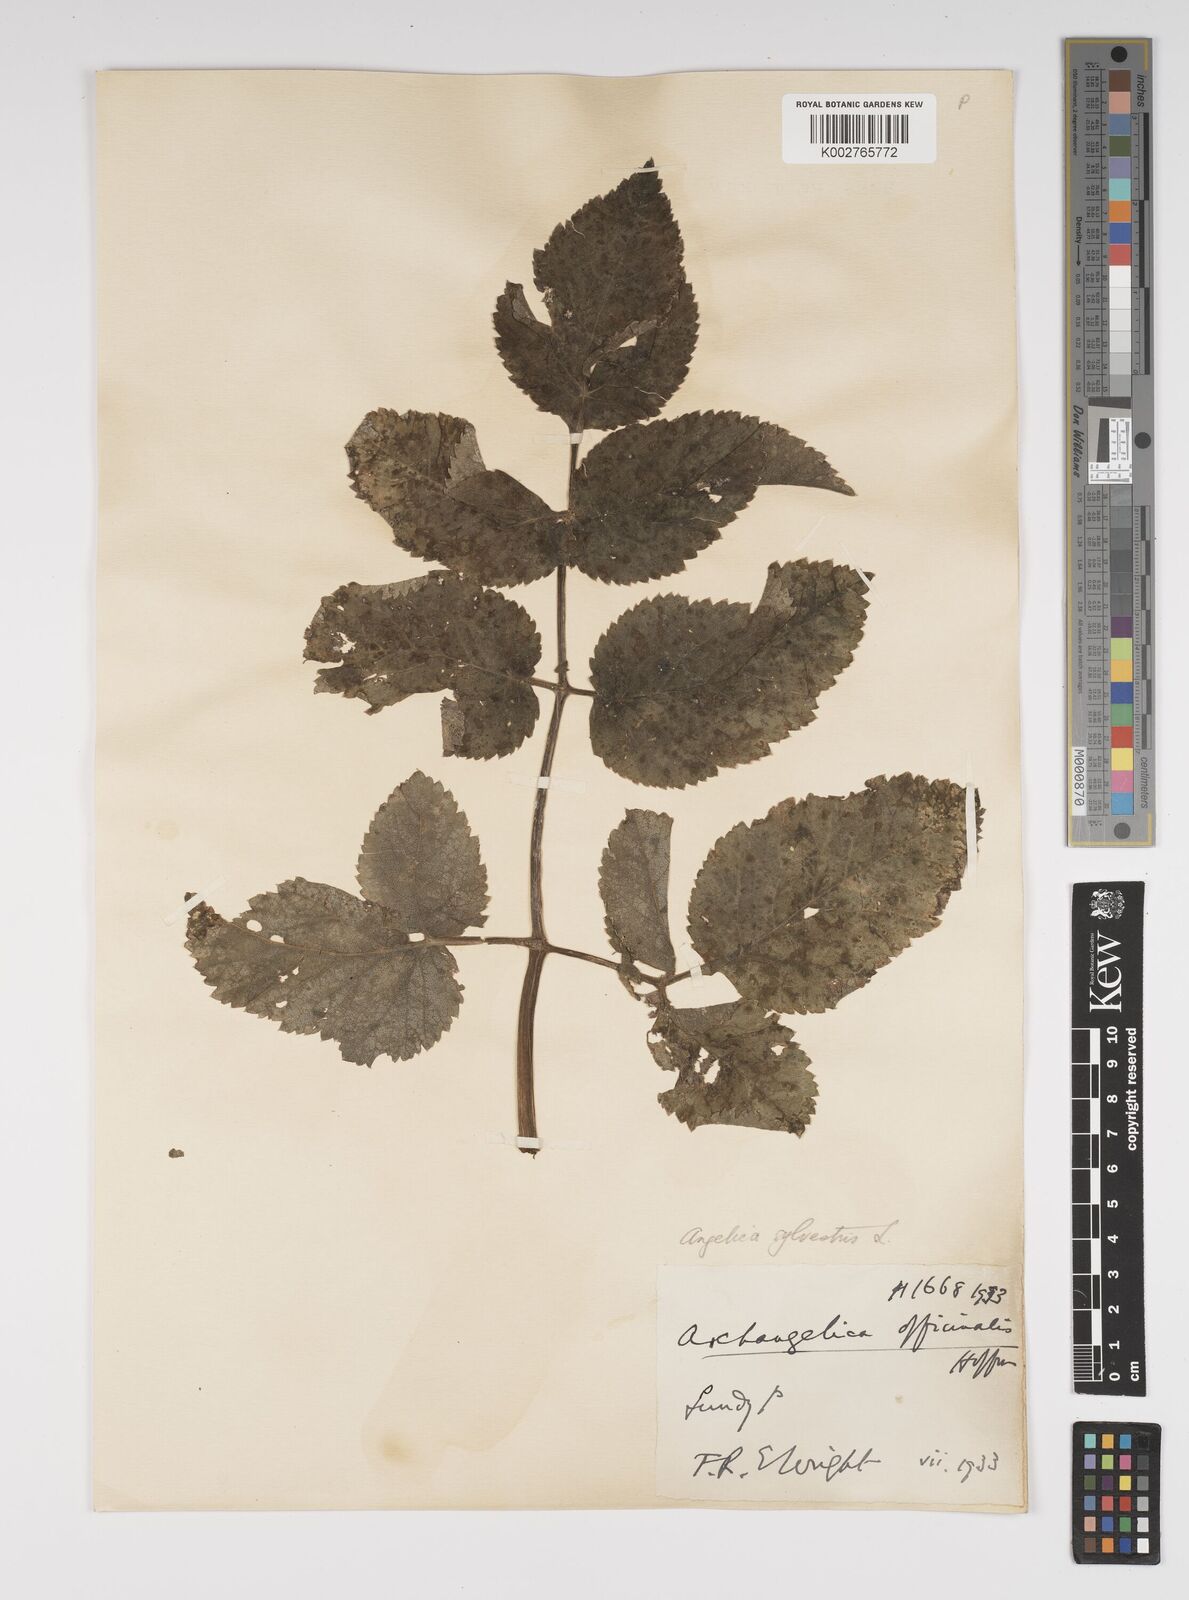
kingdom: Plantae
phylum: Tracheophyta
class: Magnoliopsida
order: Apiales
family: Apiaceae
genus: Angelica
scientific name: Angelica sylvestris
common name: Wild angelica
